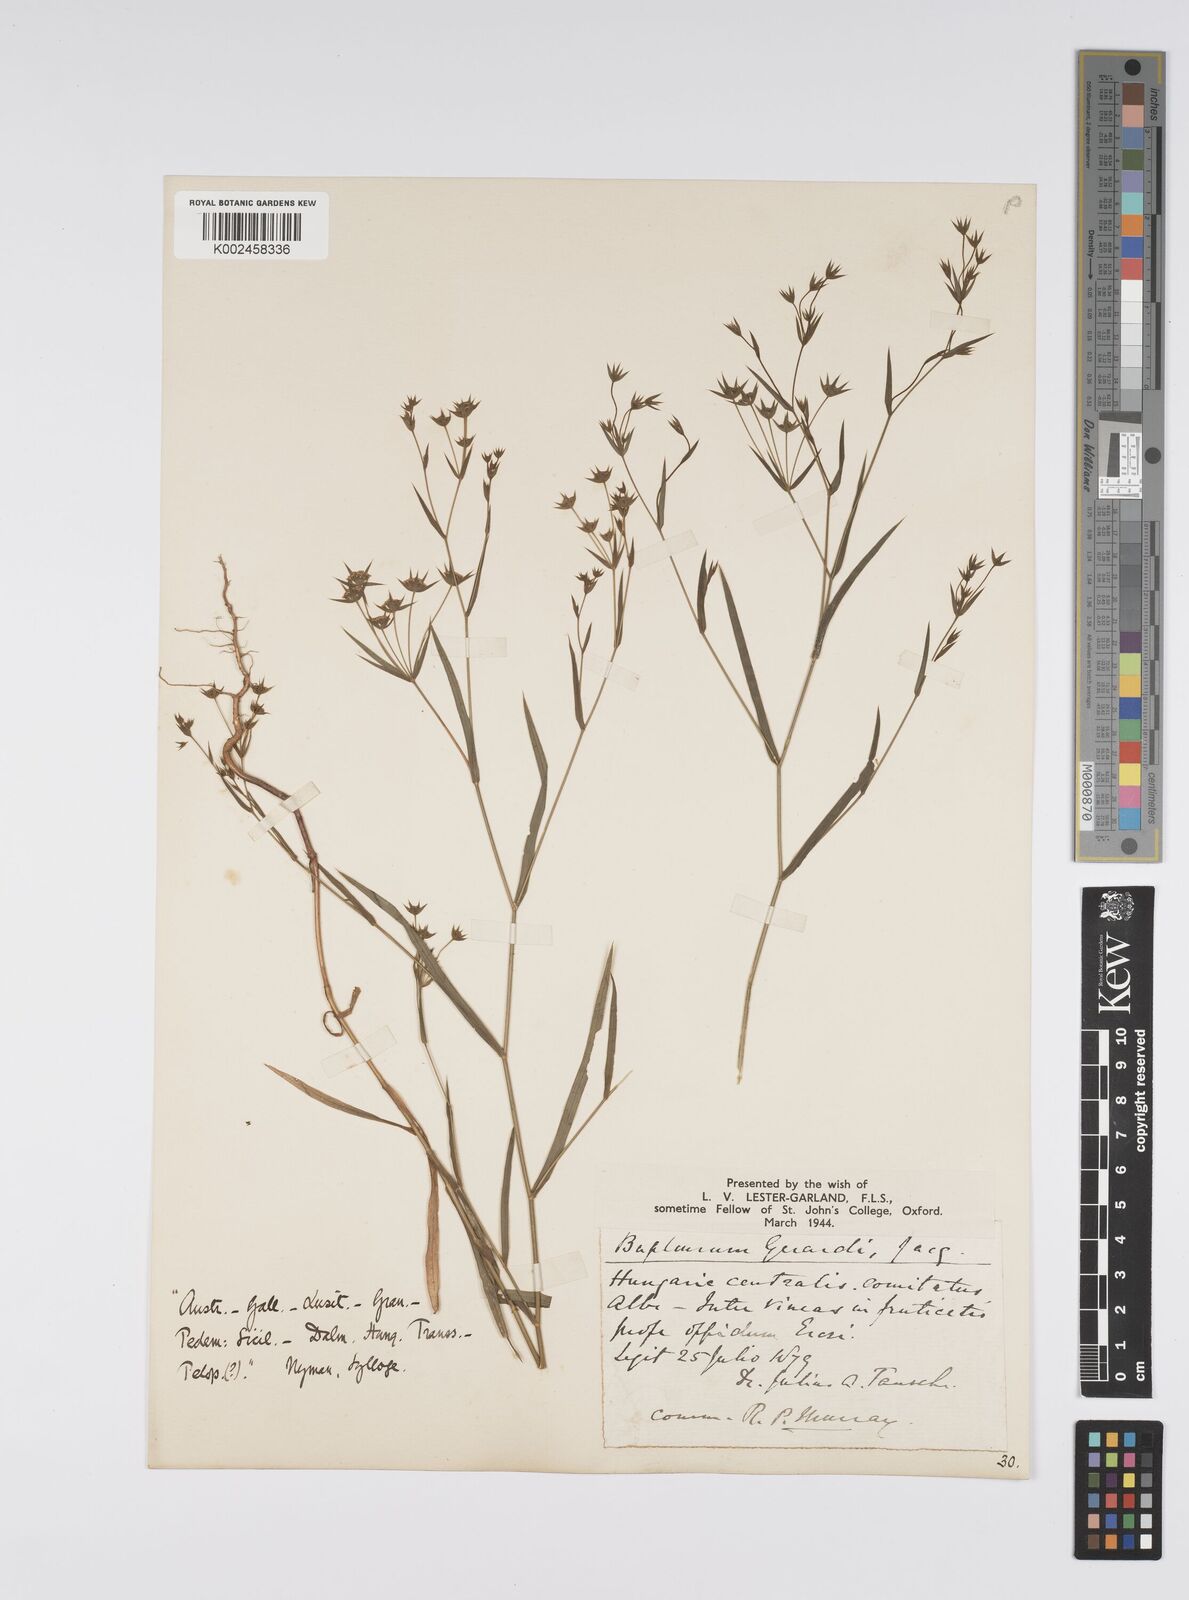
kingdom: Plantae
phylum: Tracheophyta
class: Magnoliopsida
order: Apiales
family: Apiaceae
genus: Bupleurum
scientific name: Bupleurum gerardi
